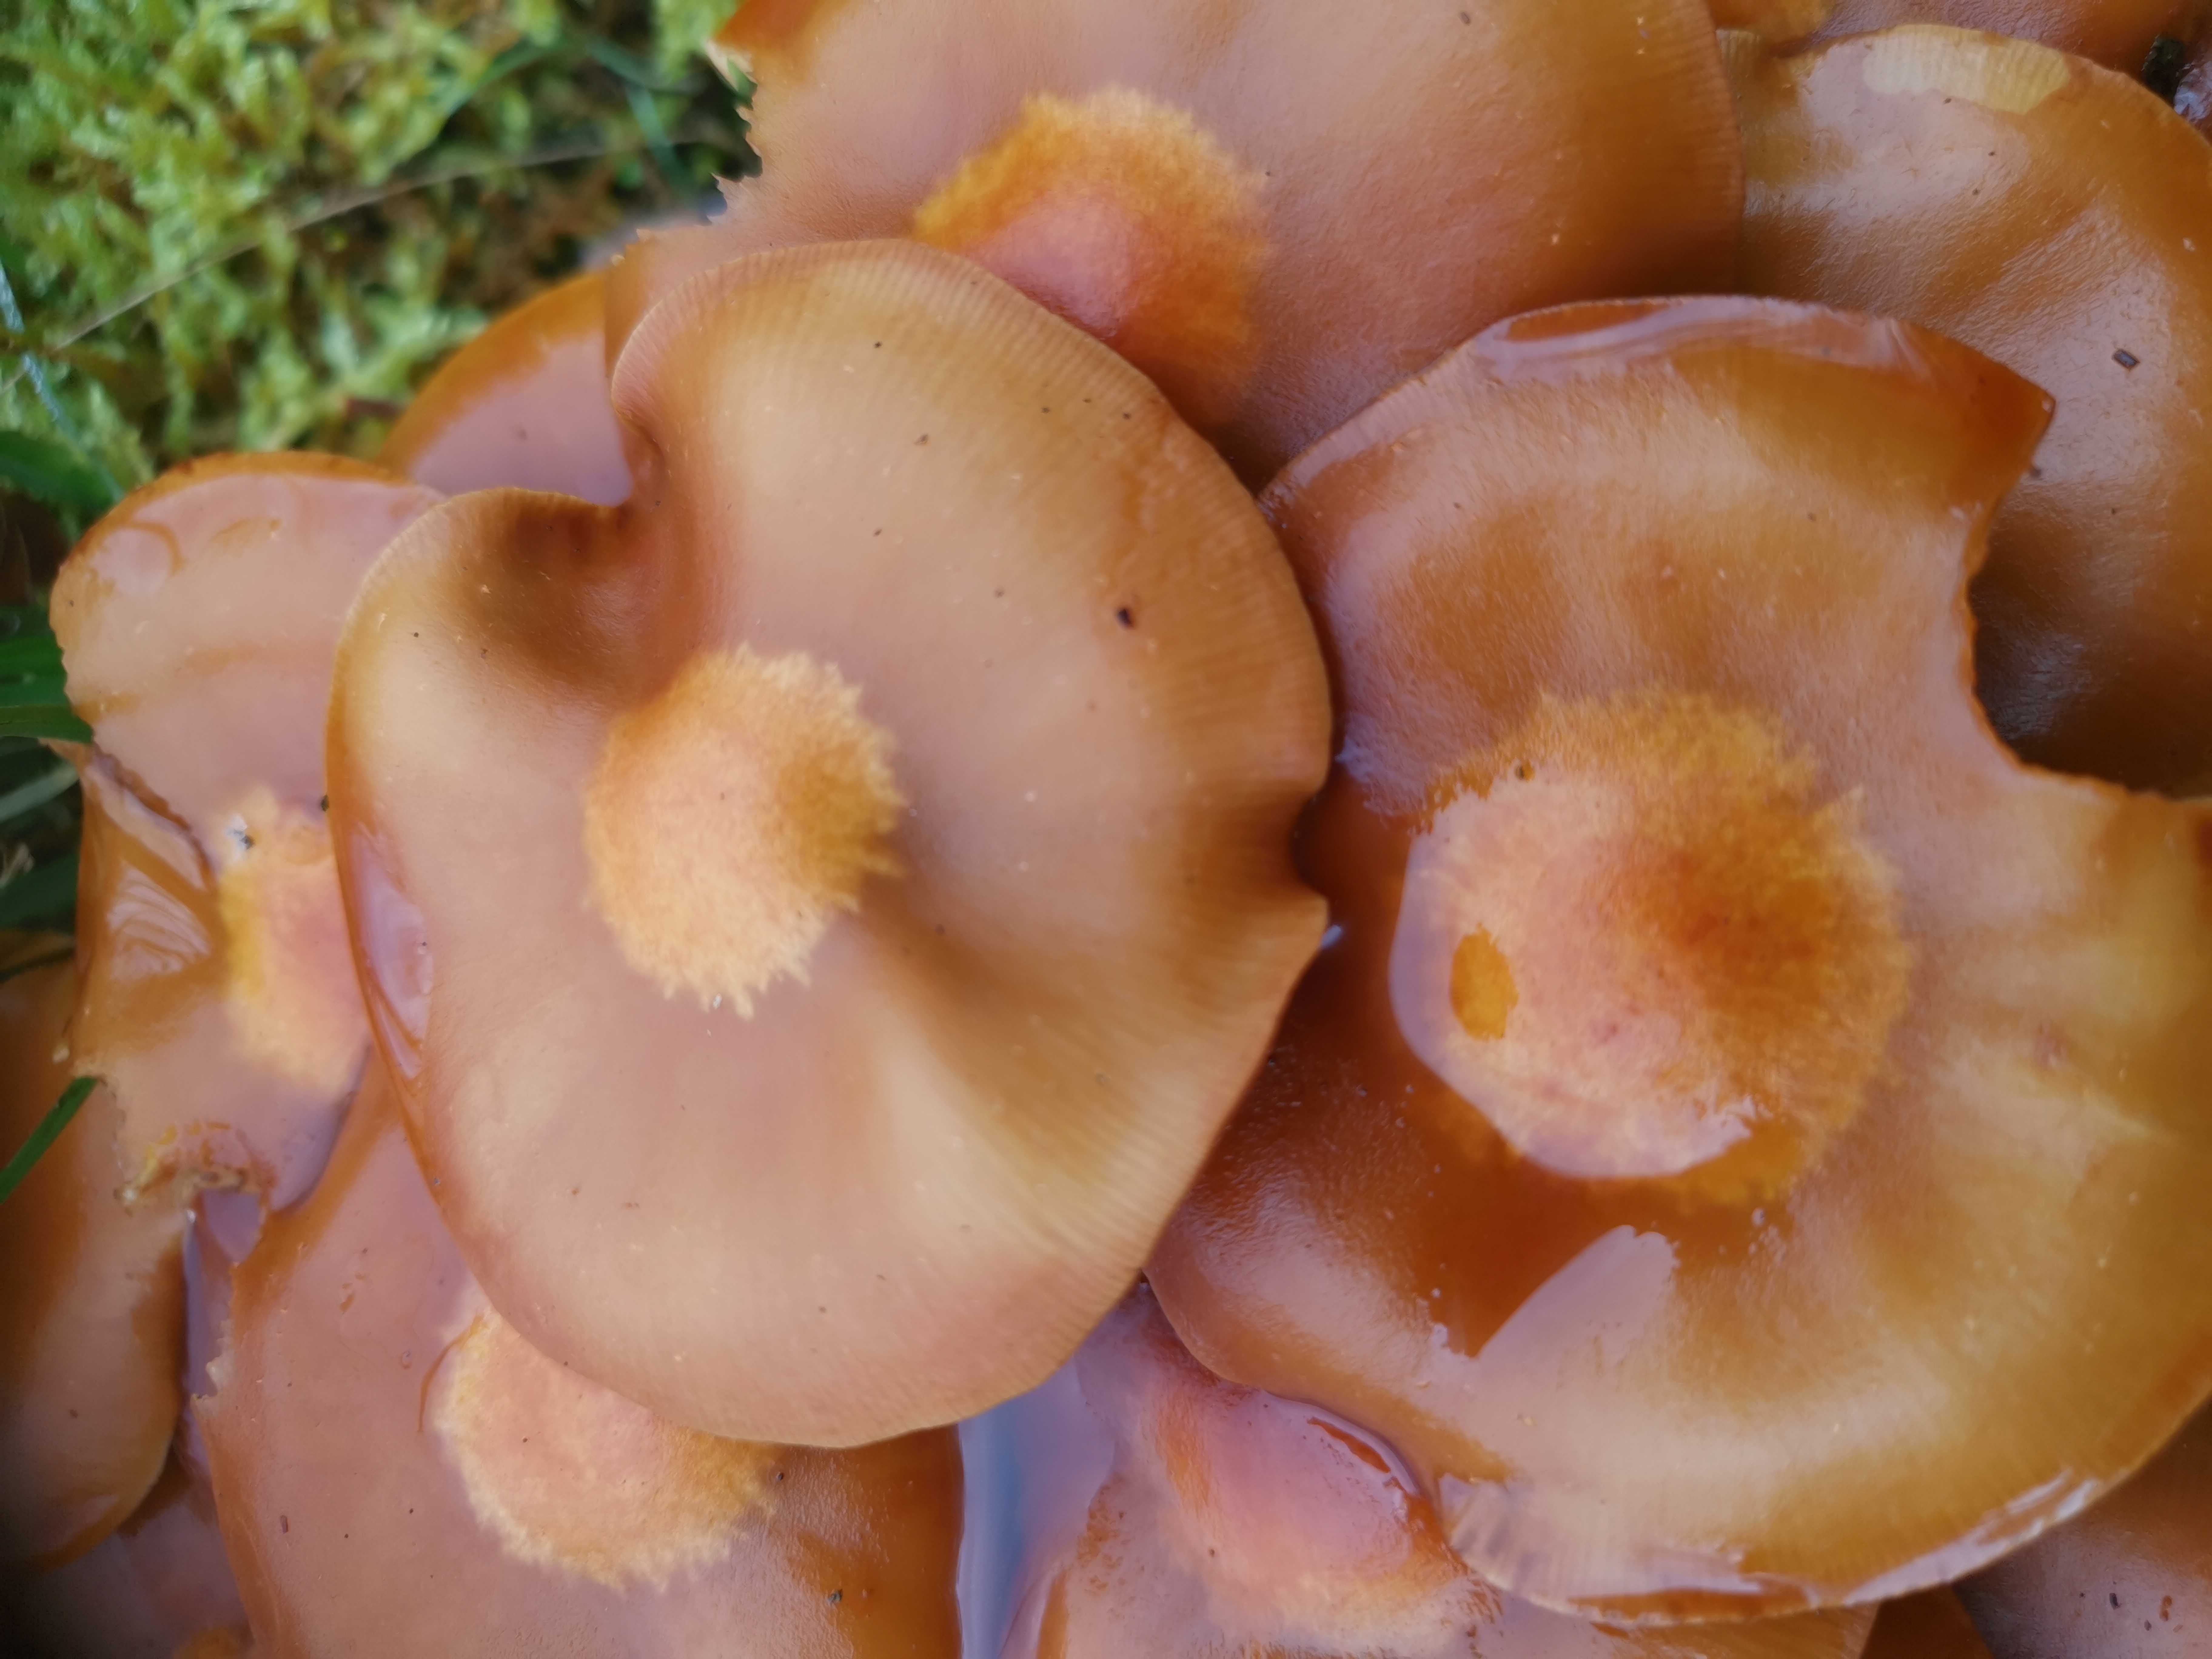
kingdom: Fungi
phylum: Basidiomycota
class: Agaricomycetes
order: Agaricales
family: Strophariaceae
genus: Kuehneromyces
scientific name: Kuehneromyces mutabilis
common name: foranderlig skælhat
